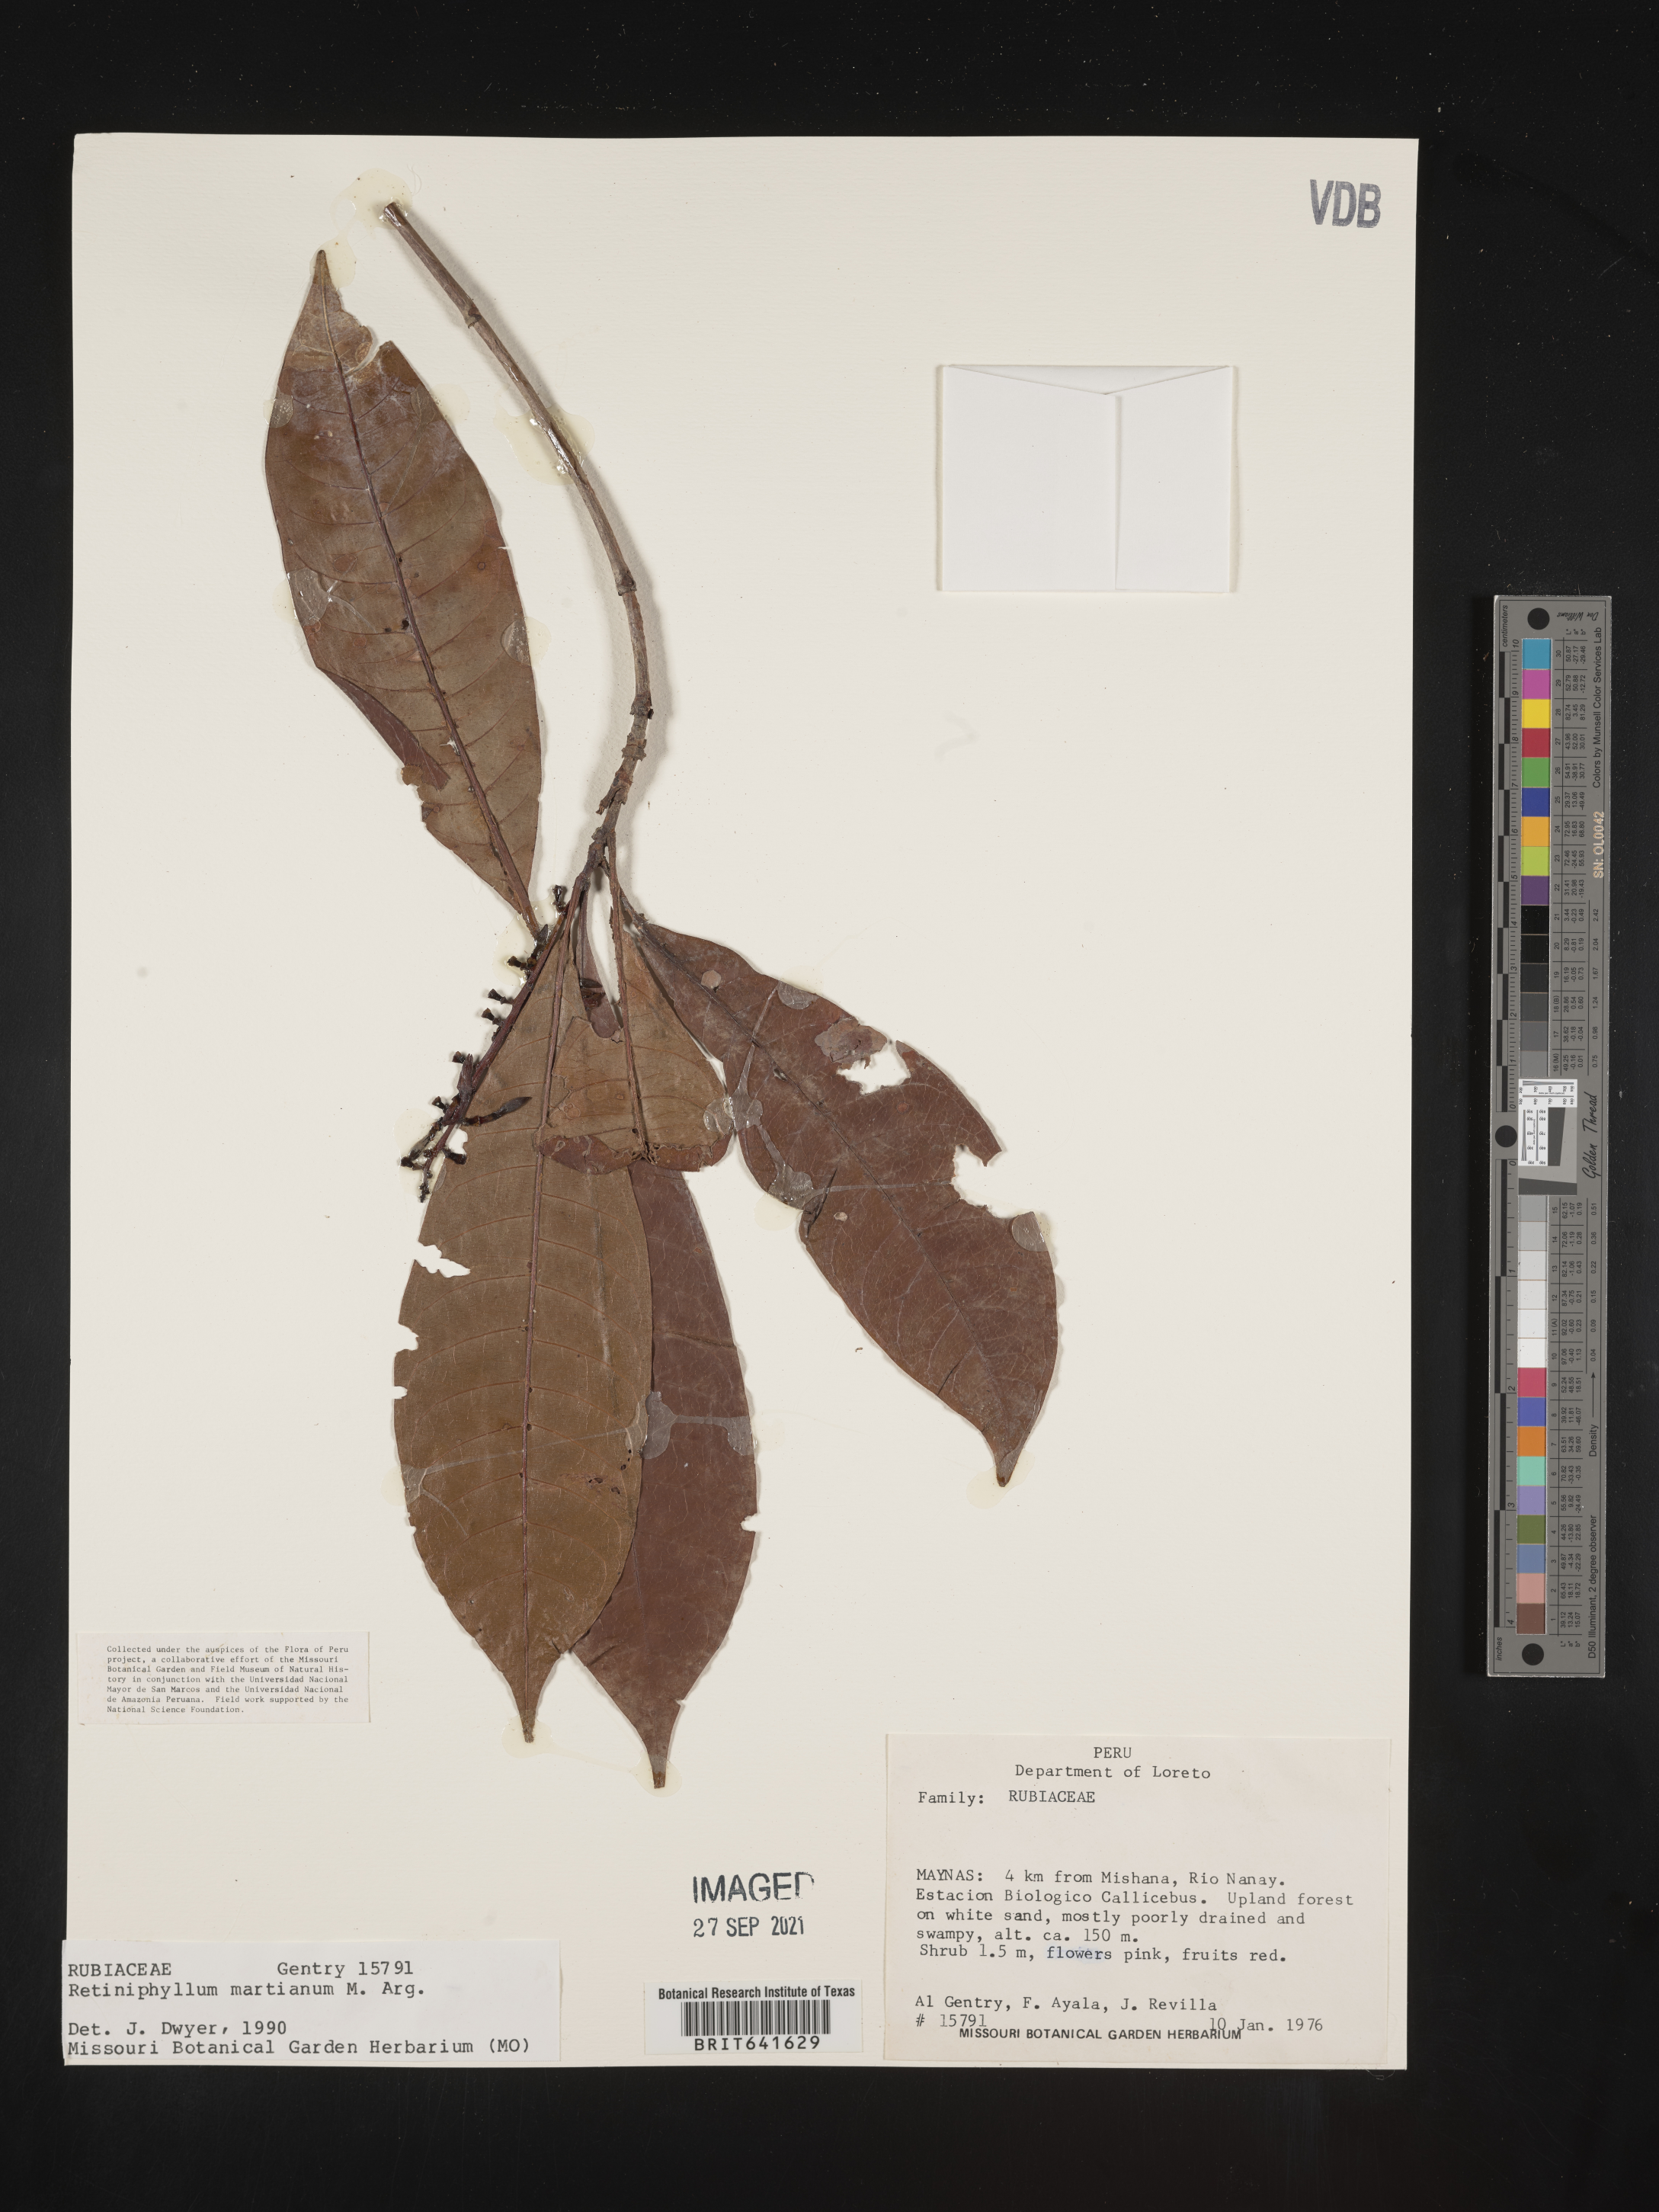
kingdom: Plantae
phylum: Tracheophyta
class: Magnoliopsida
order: Gentianales
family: Rubiaceae
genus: Retiniphyllum
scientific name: Retiniphyllum
